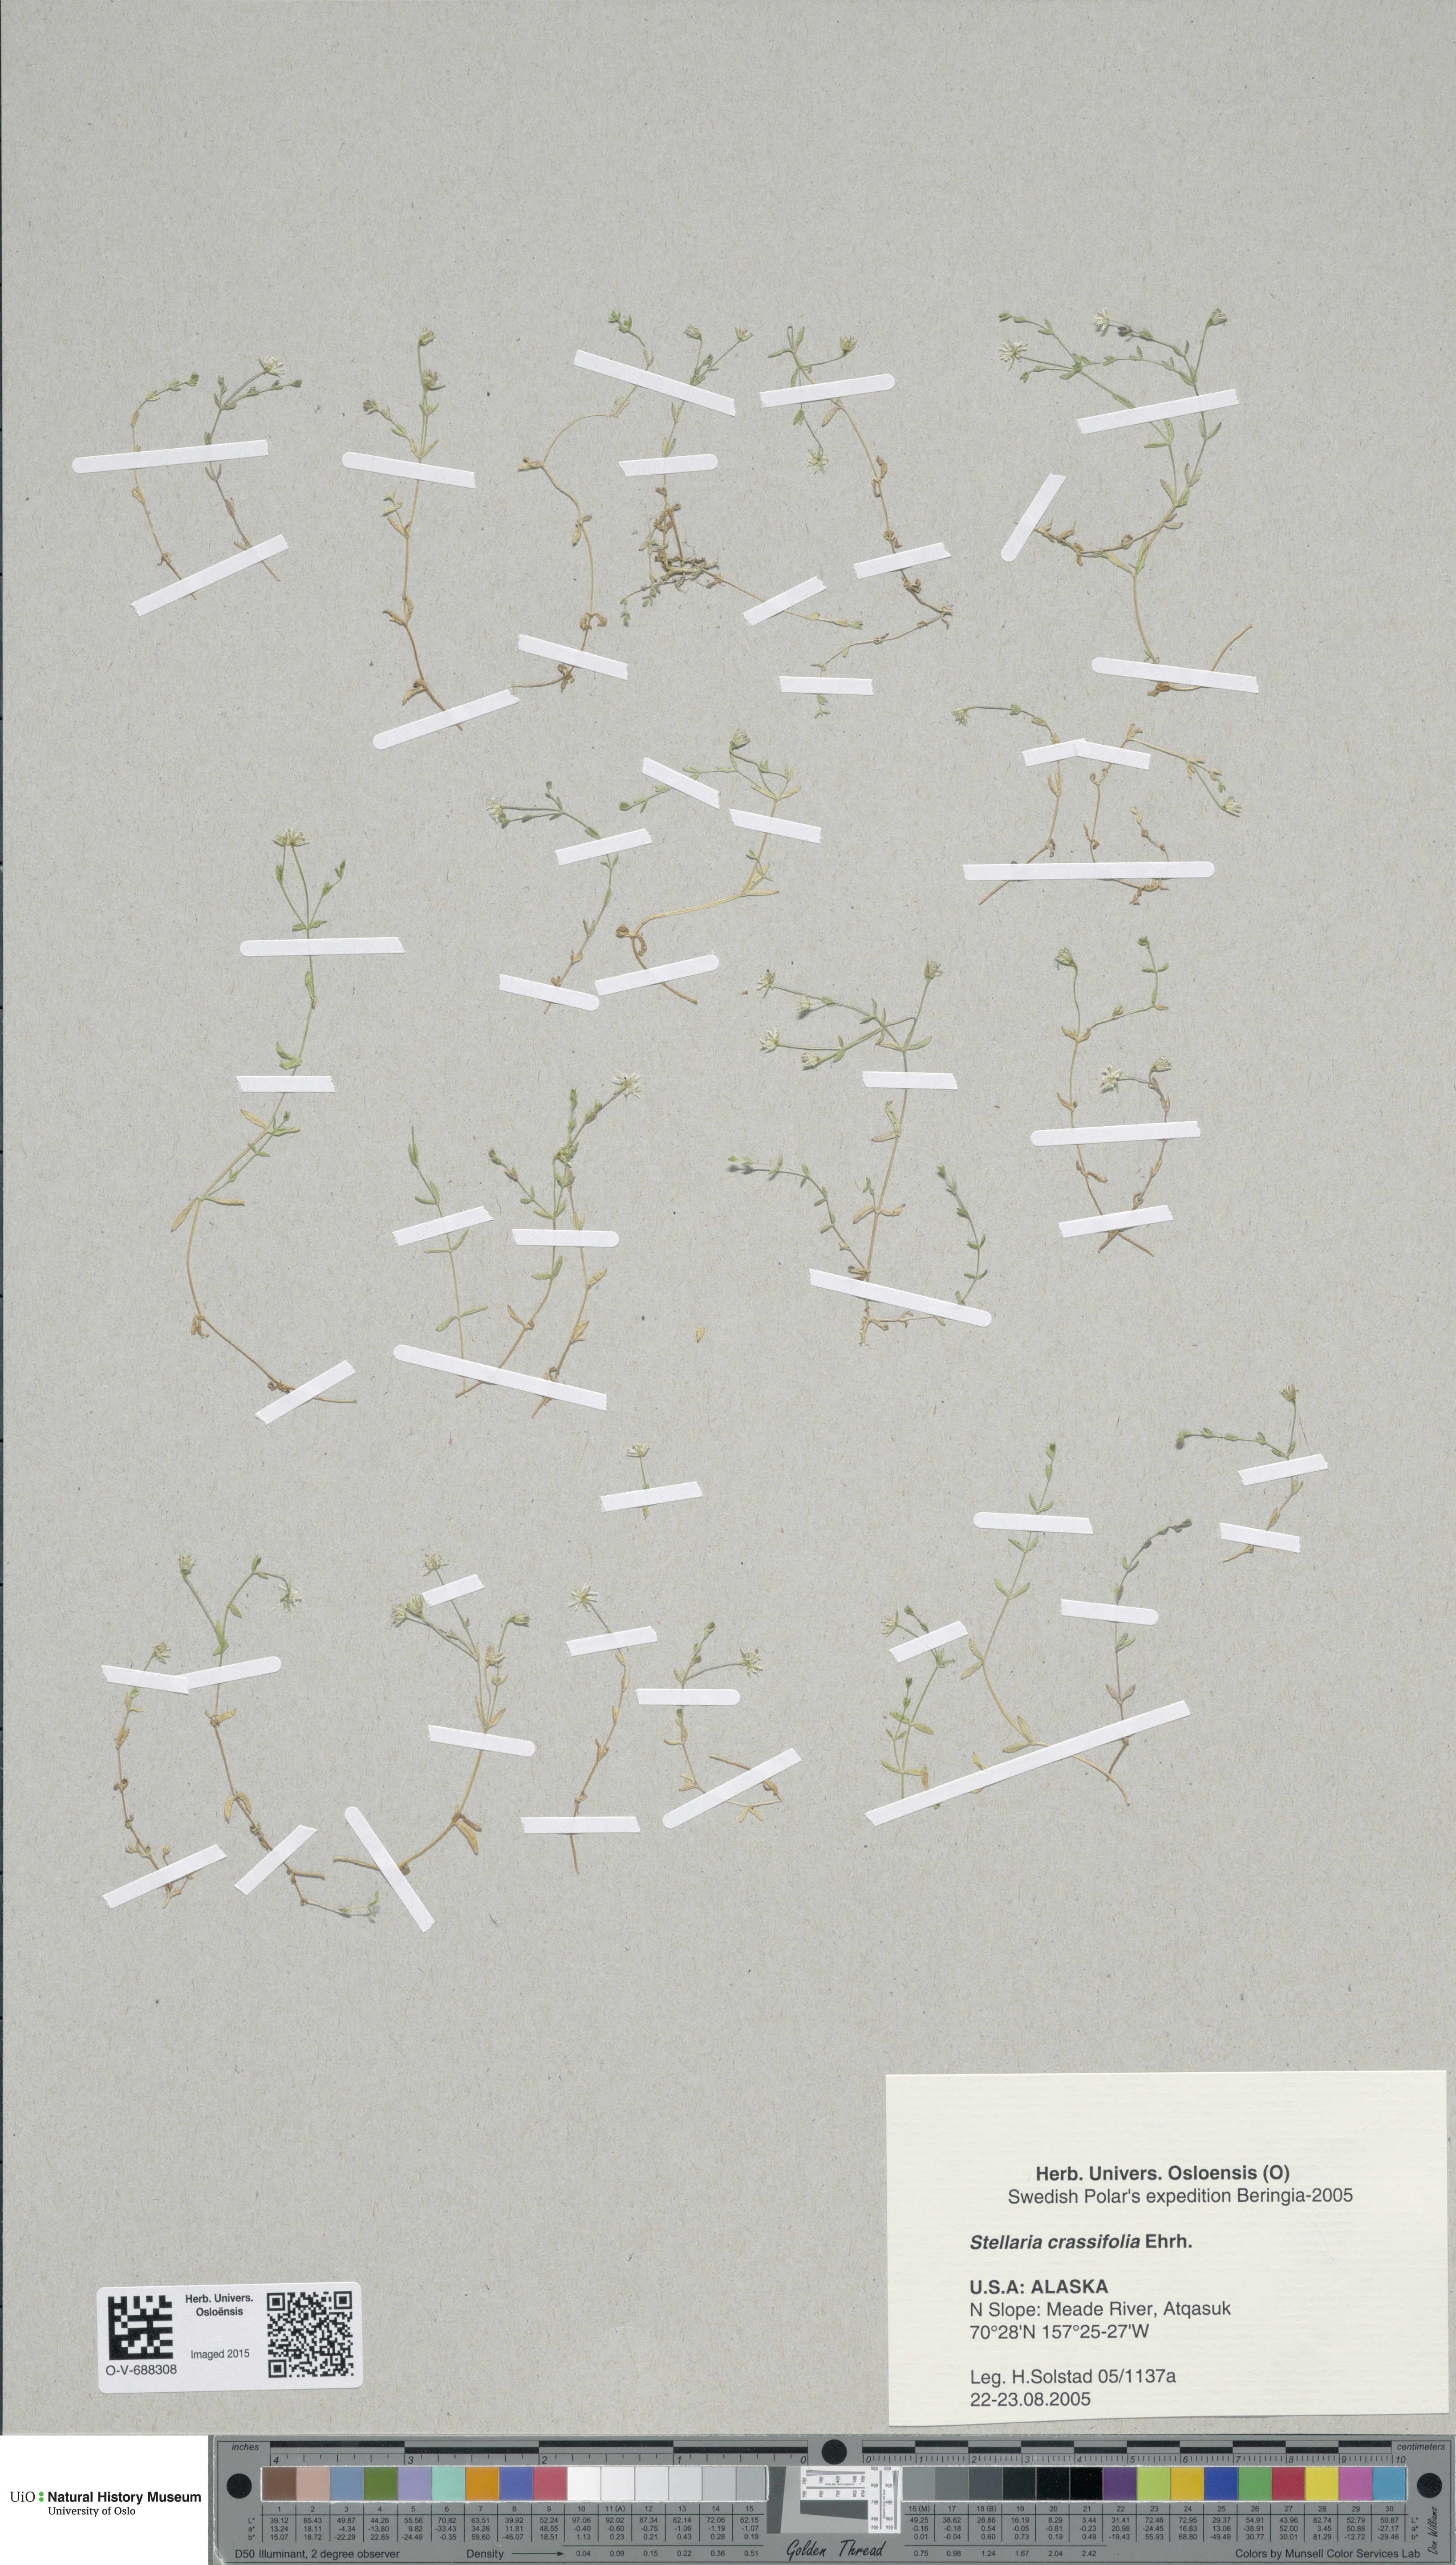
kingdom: Plantae
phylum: Tracheophyta
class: Magnoliopsida
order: Caryophyllales
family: Caryophyllaceae
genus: Stellaria
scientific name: Stellaria crassifolia
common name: Fleshy starwort
